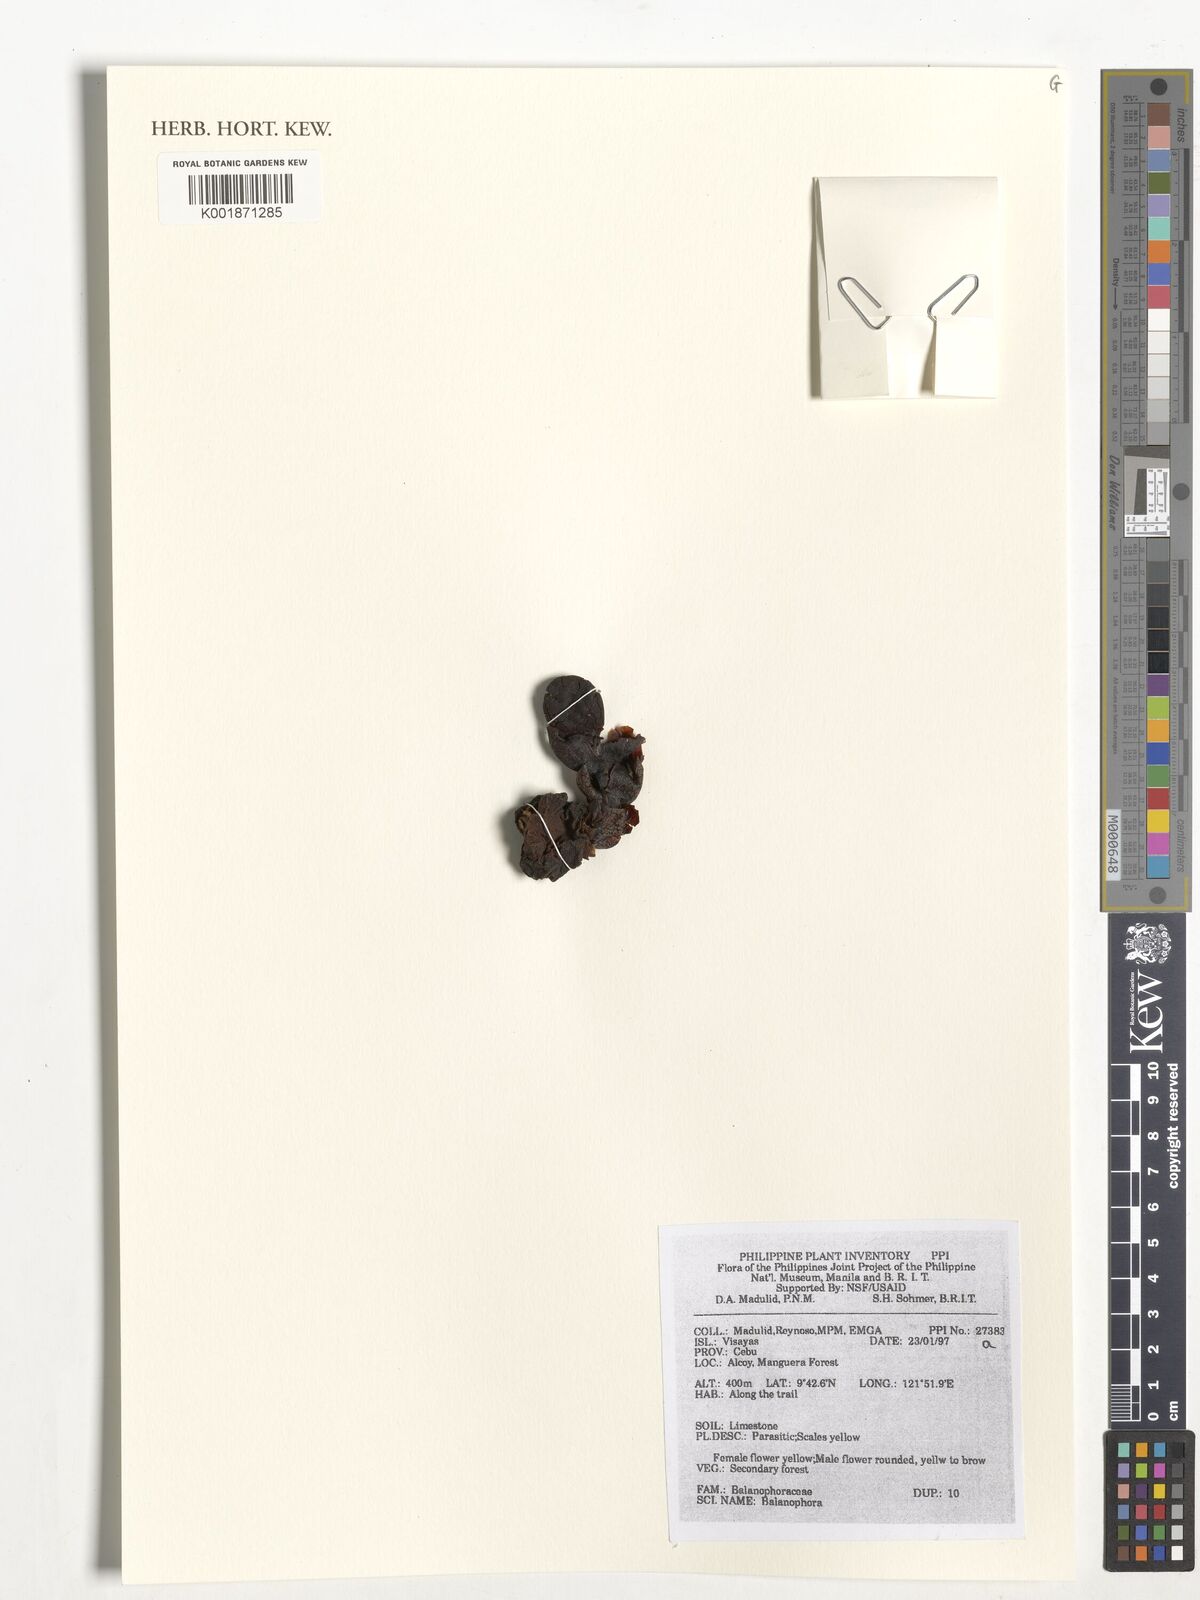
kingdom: Plantae
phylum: Tracheophyta
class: Magnoliopsida
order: Santalales
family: Balanophoraceae
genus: Balanophora
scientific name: Balanophora
